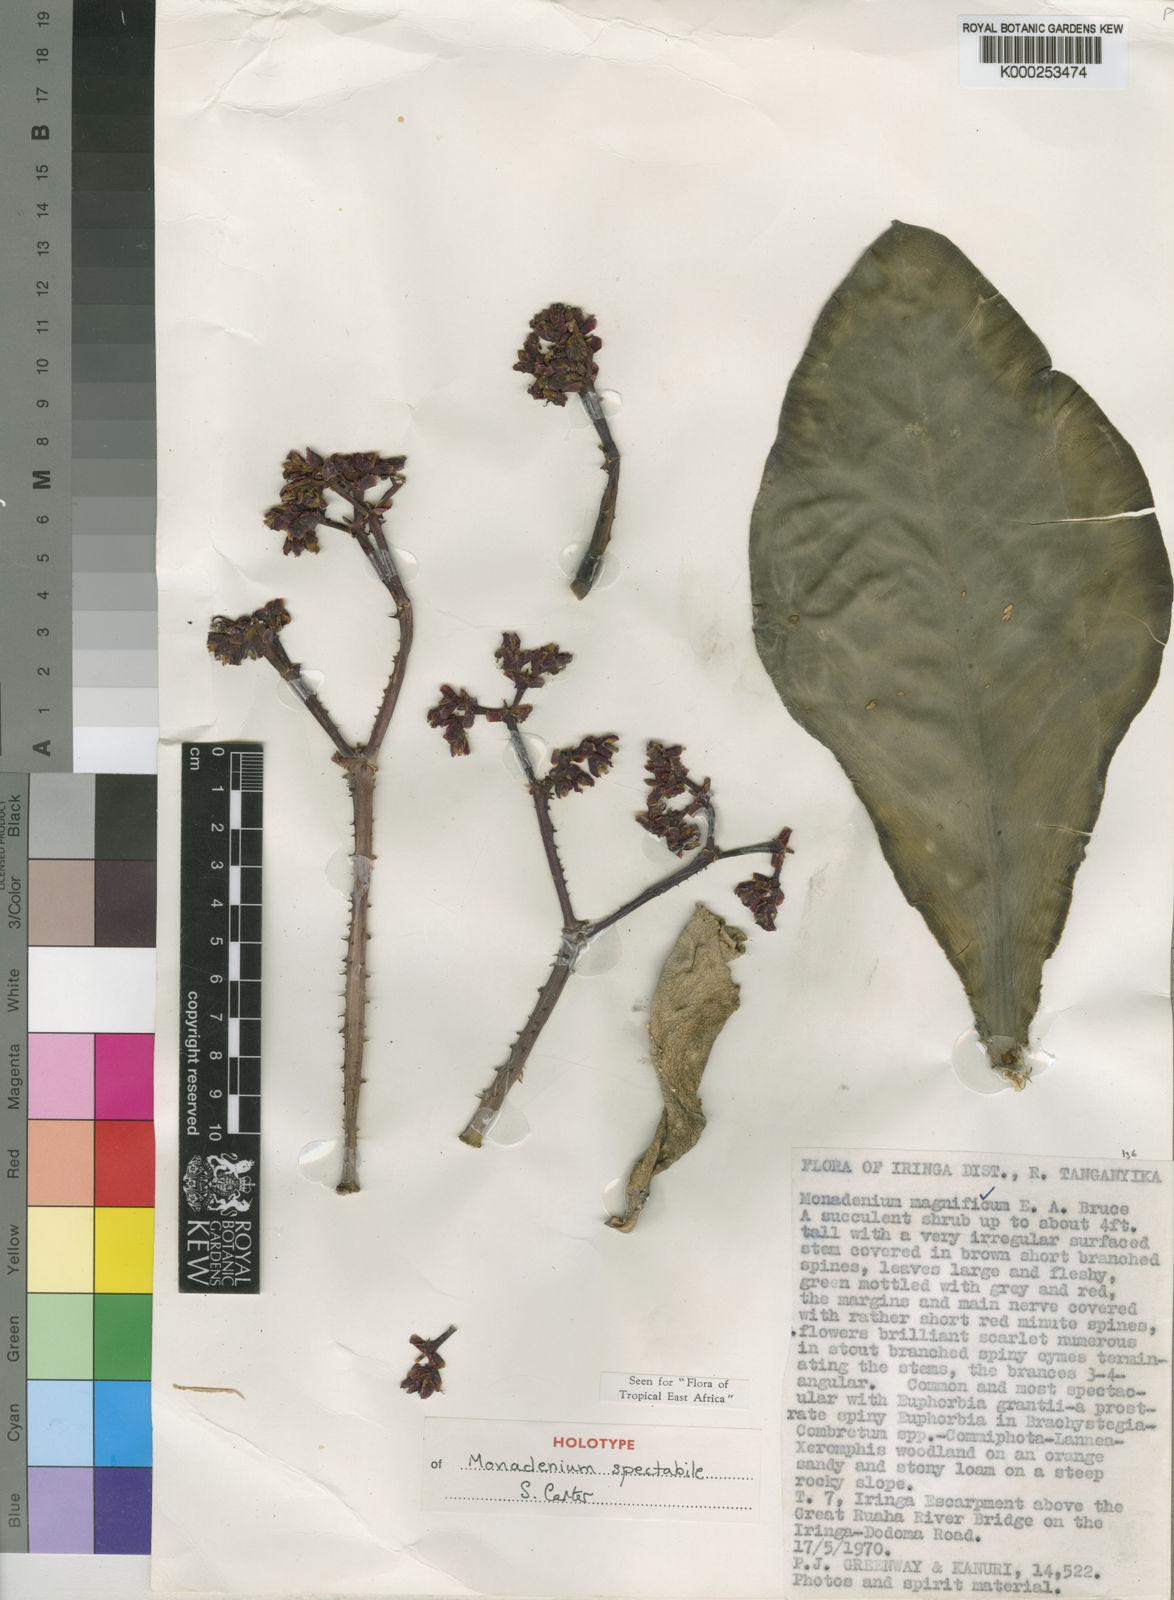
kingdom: Plantae
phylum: Tracheophyta
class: Magnoliopsida
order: Malpighiales
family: Euphorbiaceae
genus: Euphorbia
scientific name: Euphorbia spectabilis
